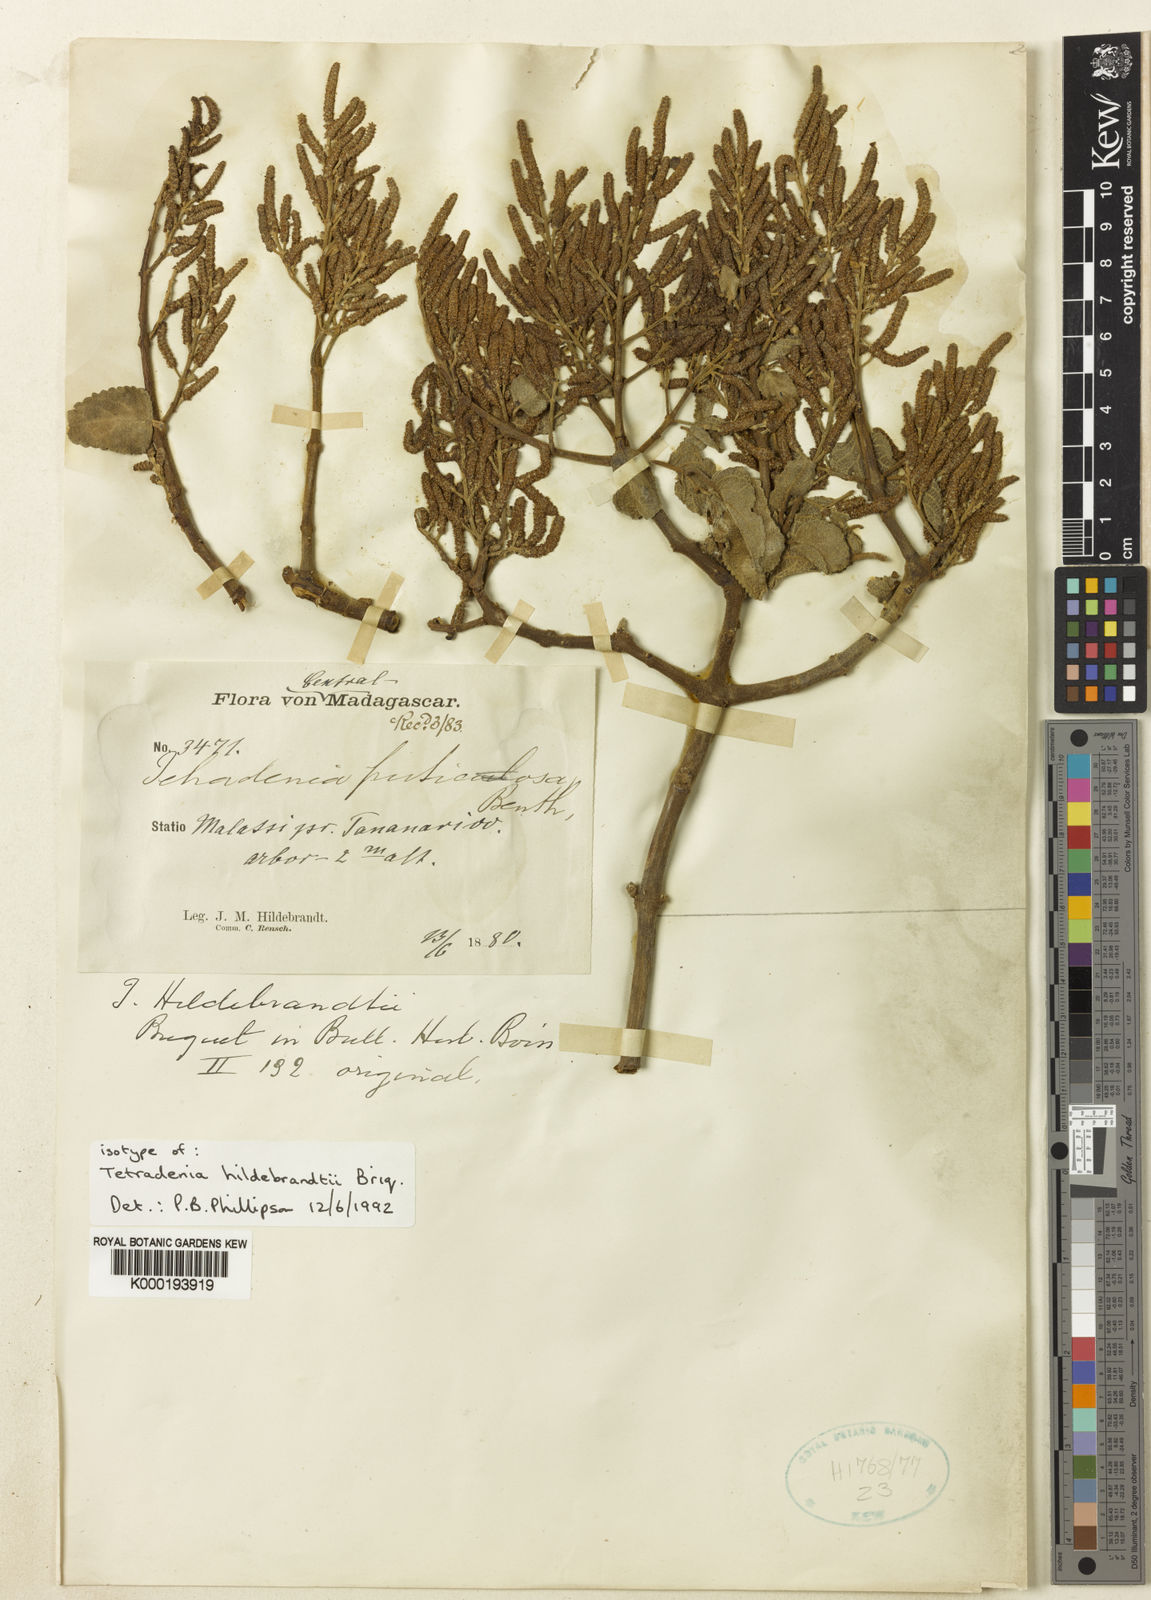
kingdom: Plantae
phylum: Tracheophyta
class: Magnoliopsida
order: Lamiales
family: Lamiaceae
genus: Tetradenia
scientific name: Tetradenia fruticosa
